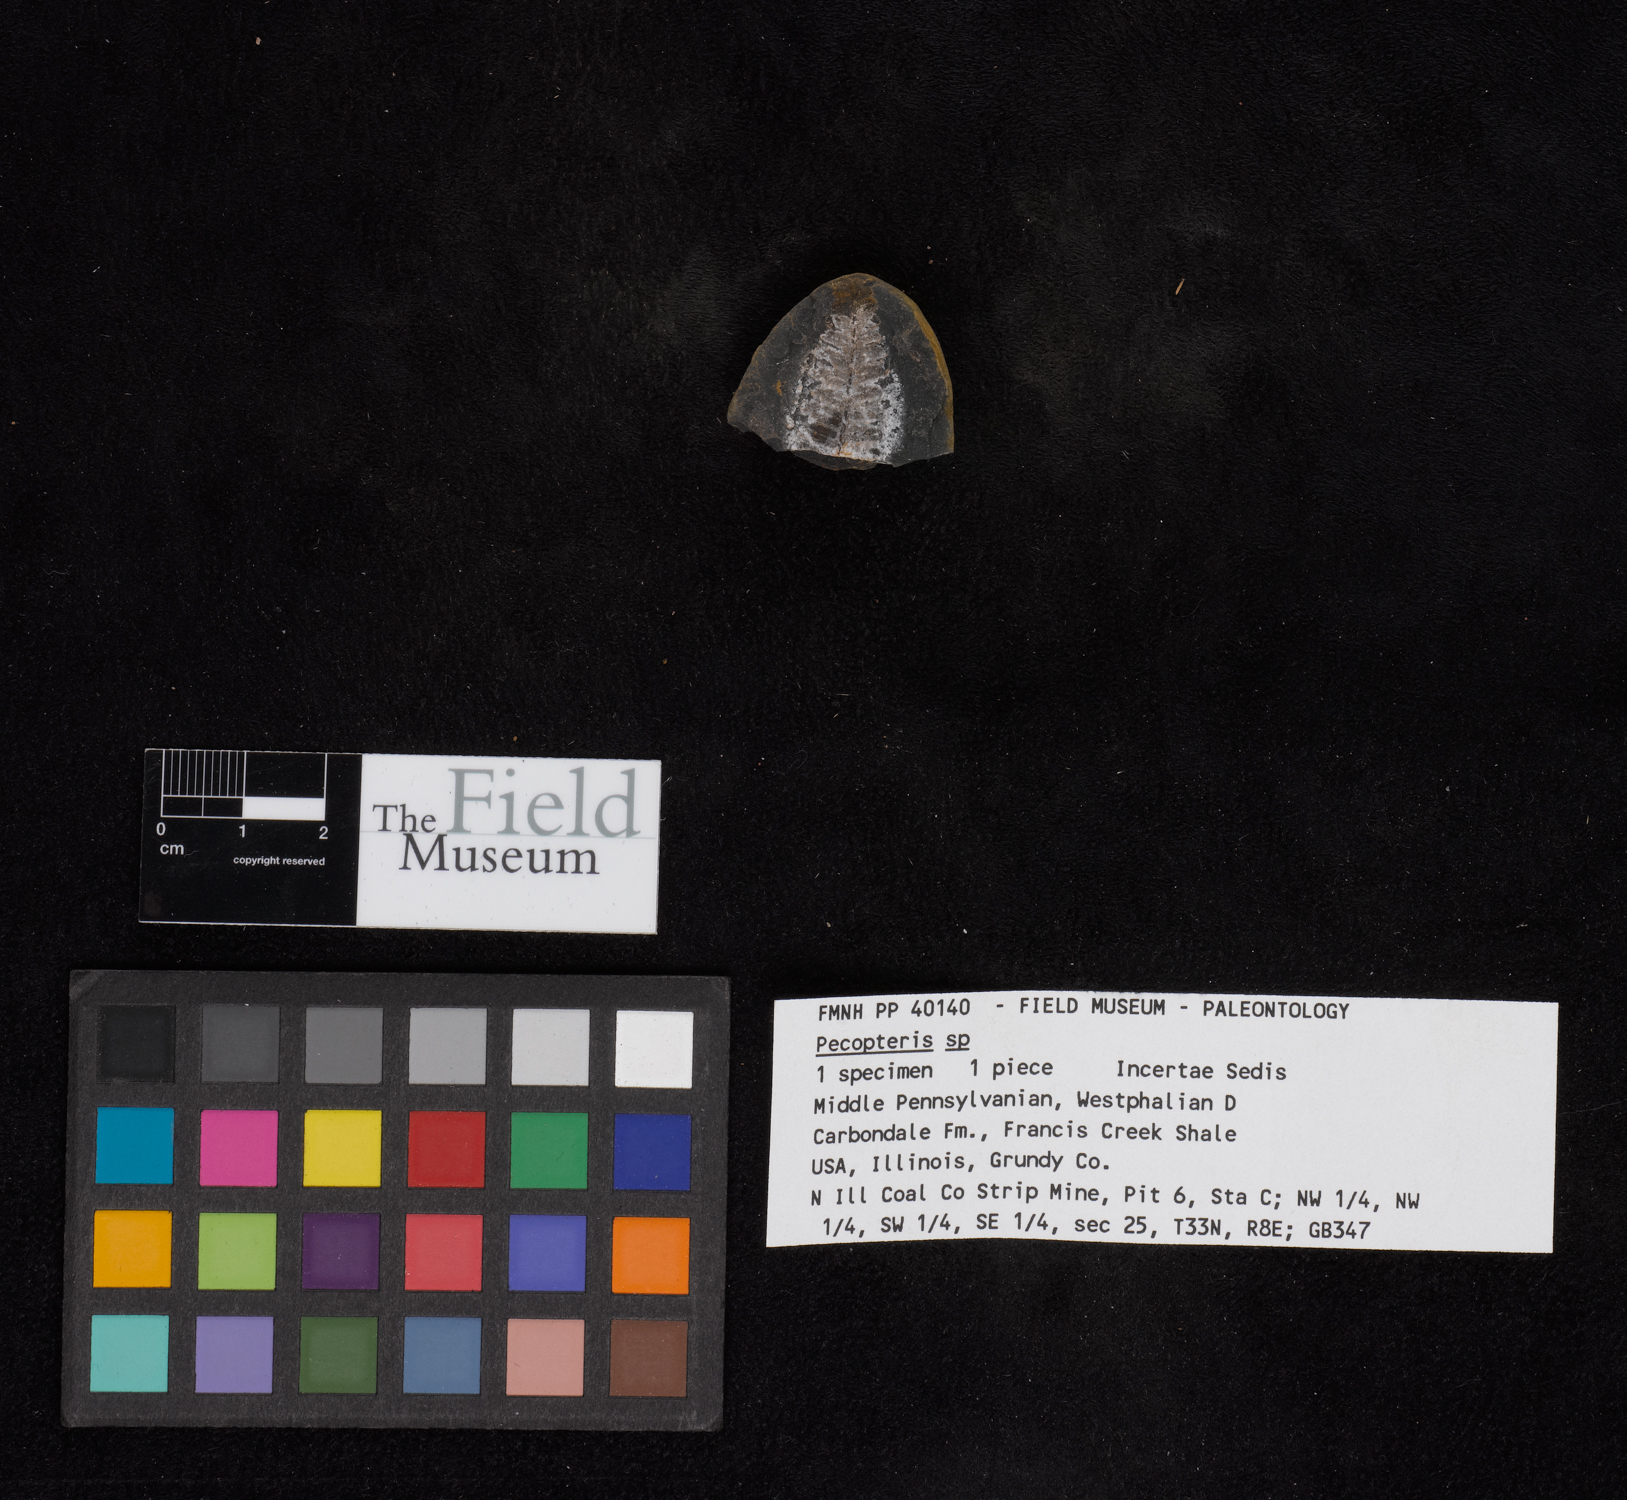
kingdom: Plantae
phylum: Tracheophyta
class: Polypodiopsida
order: Marattiales
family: Asterothecaceae
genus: Pecopteris
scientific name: Pecopteris
